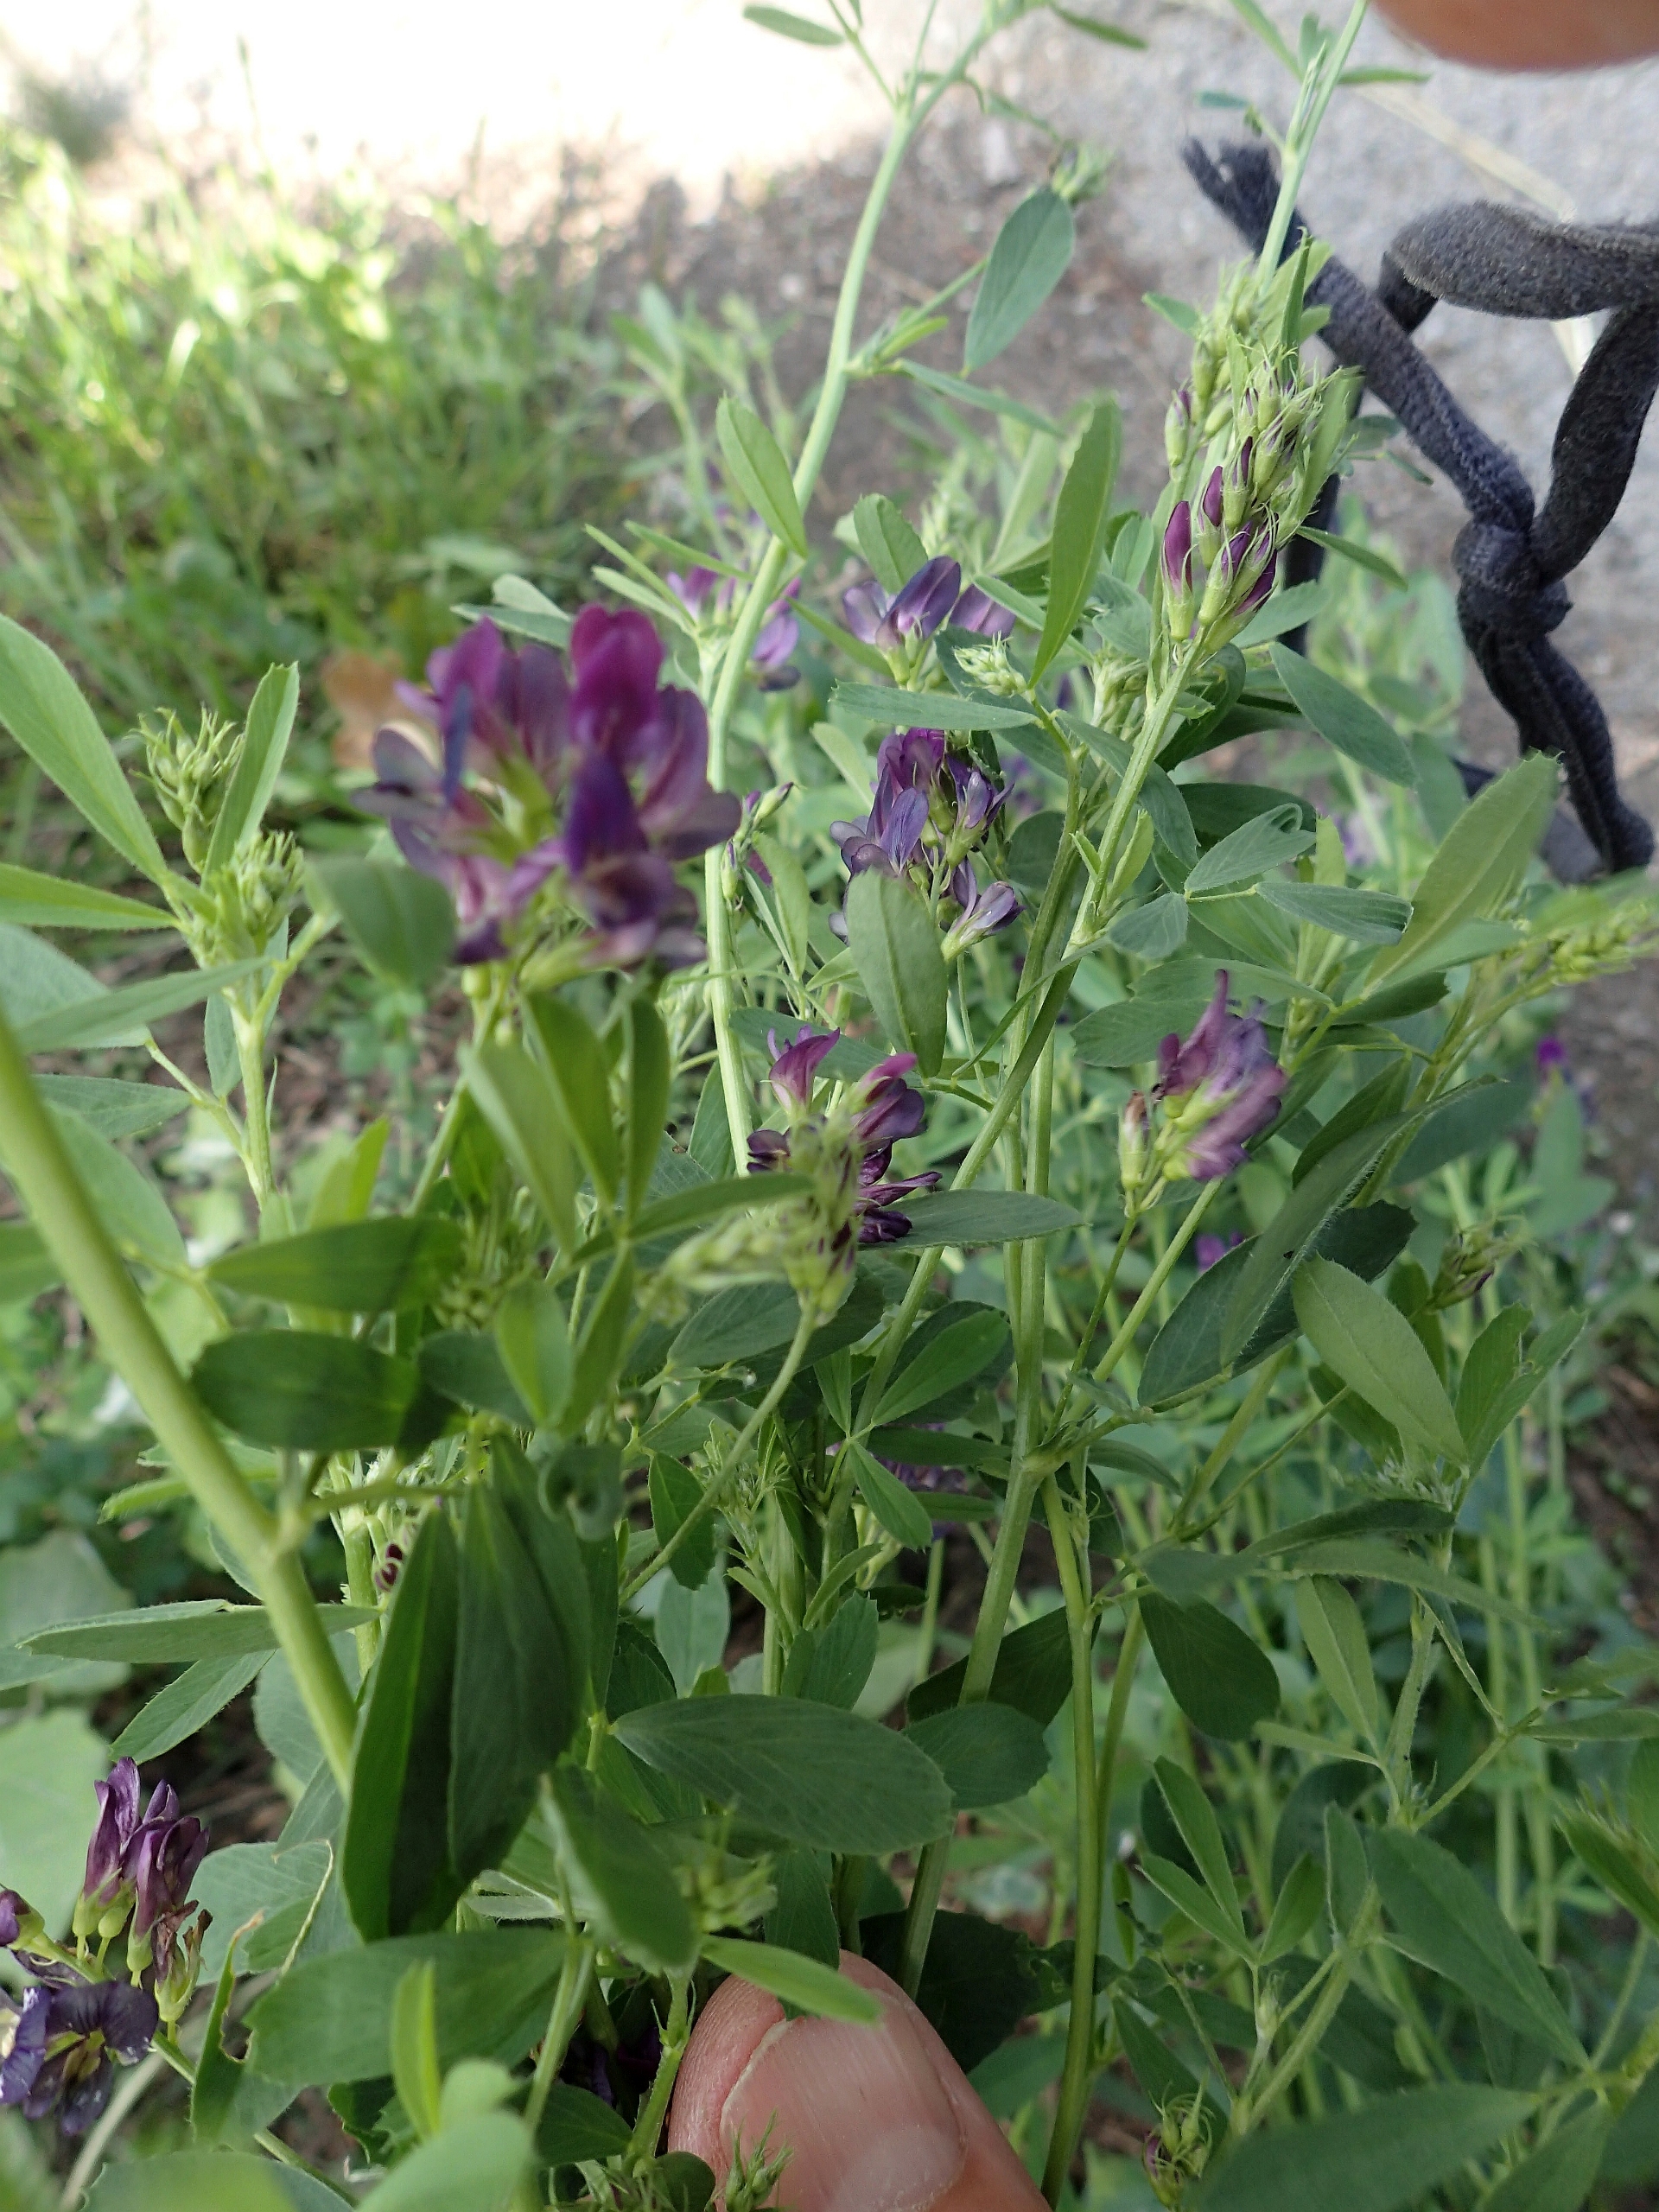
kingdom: Plantae
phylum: Tracheophyta
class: Magnoliopsida
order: Fabales
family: Fabaceae
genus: Medicago
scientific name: Medicago sativa
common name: Lucerne
